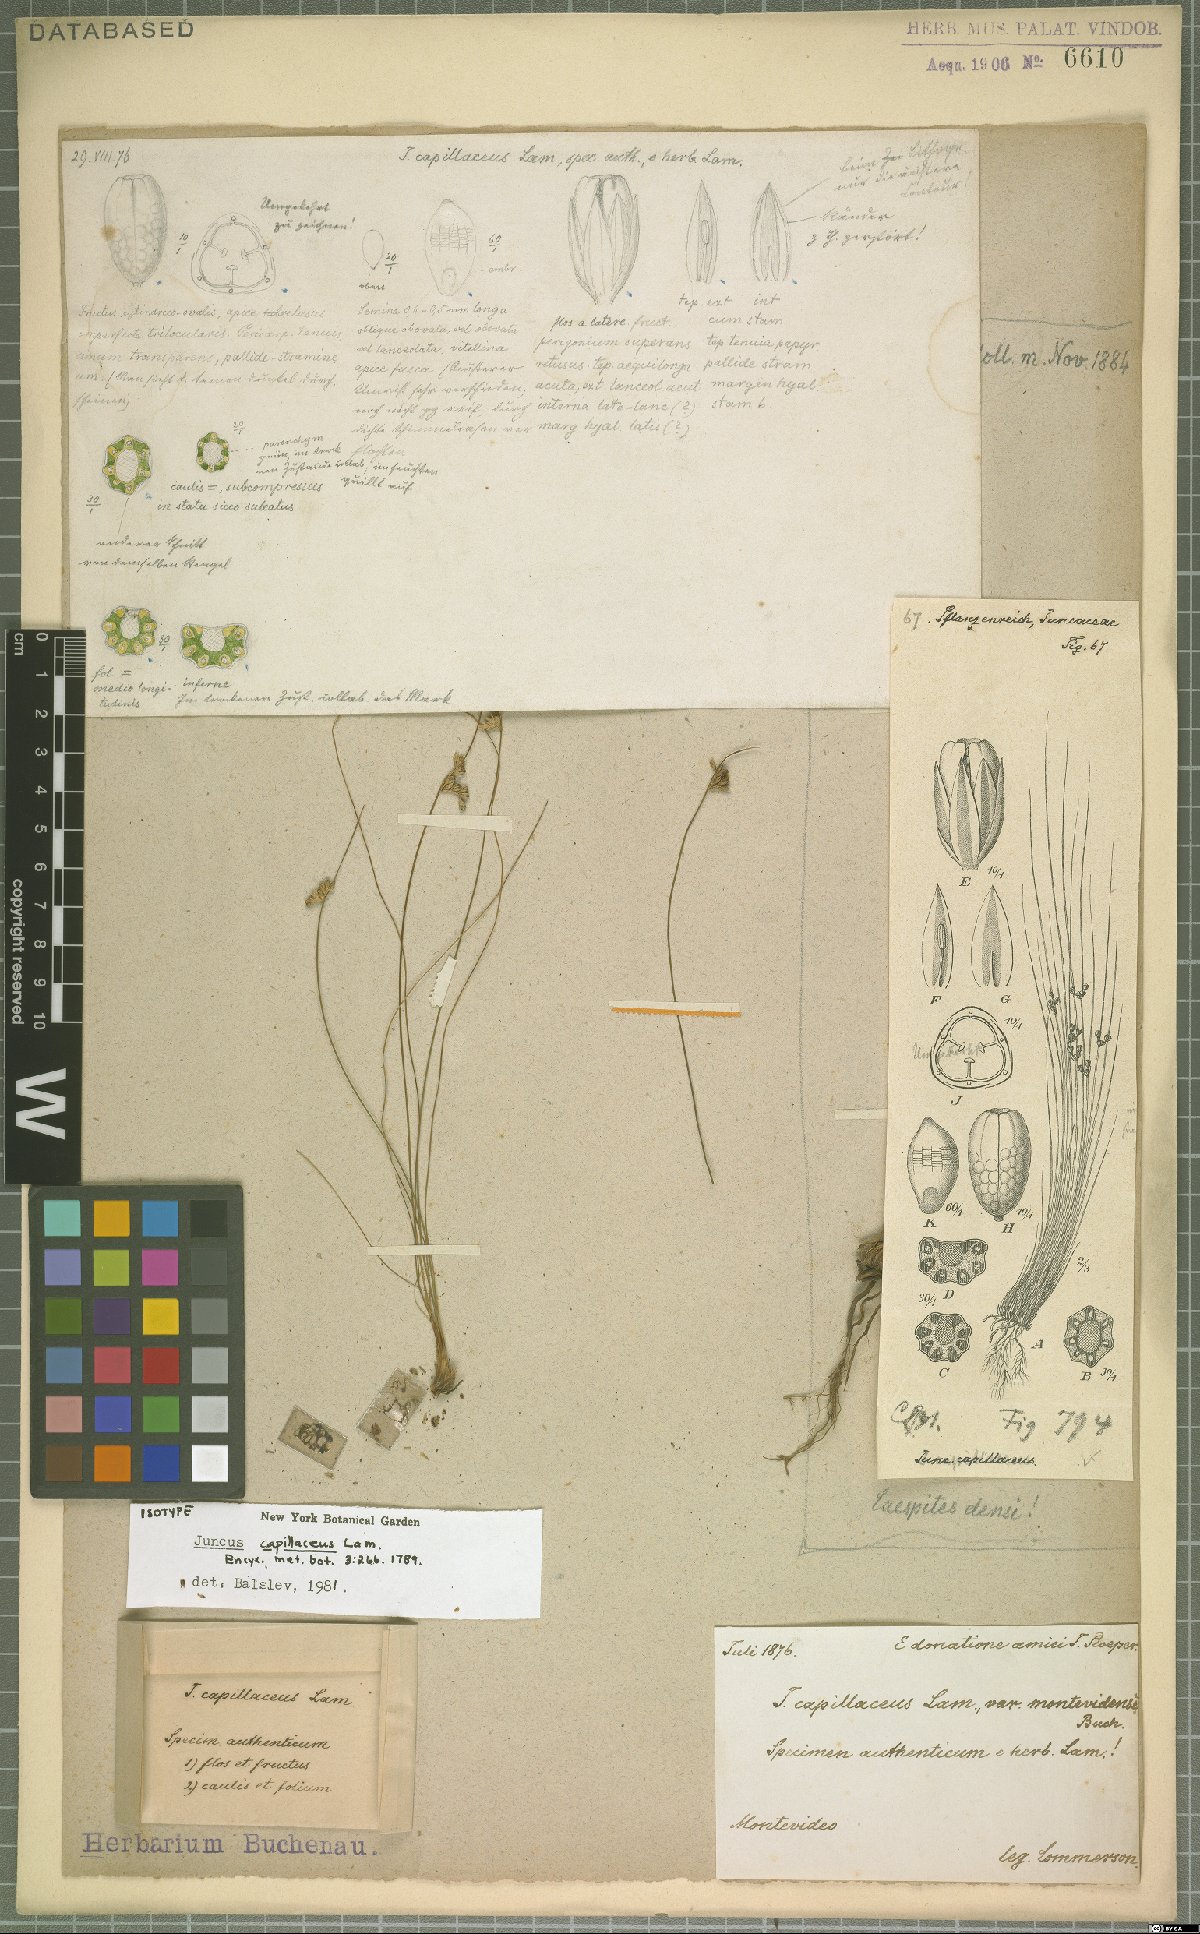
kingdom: Plantae
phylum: Tracheophyta
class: Liliopsida
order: Poales
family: Juncaceae
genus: Juncus
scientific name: Juncus capillaceus
